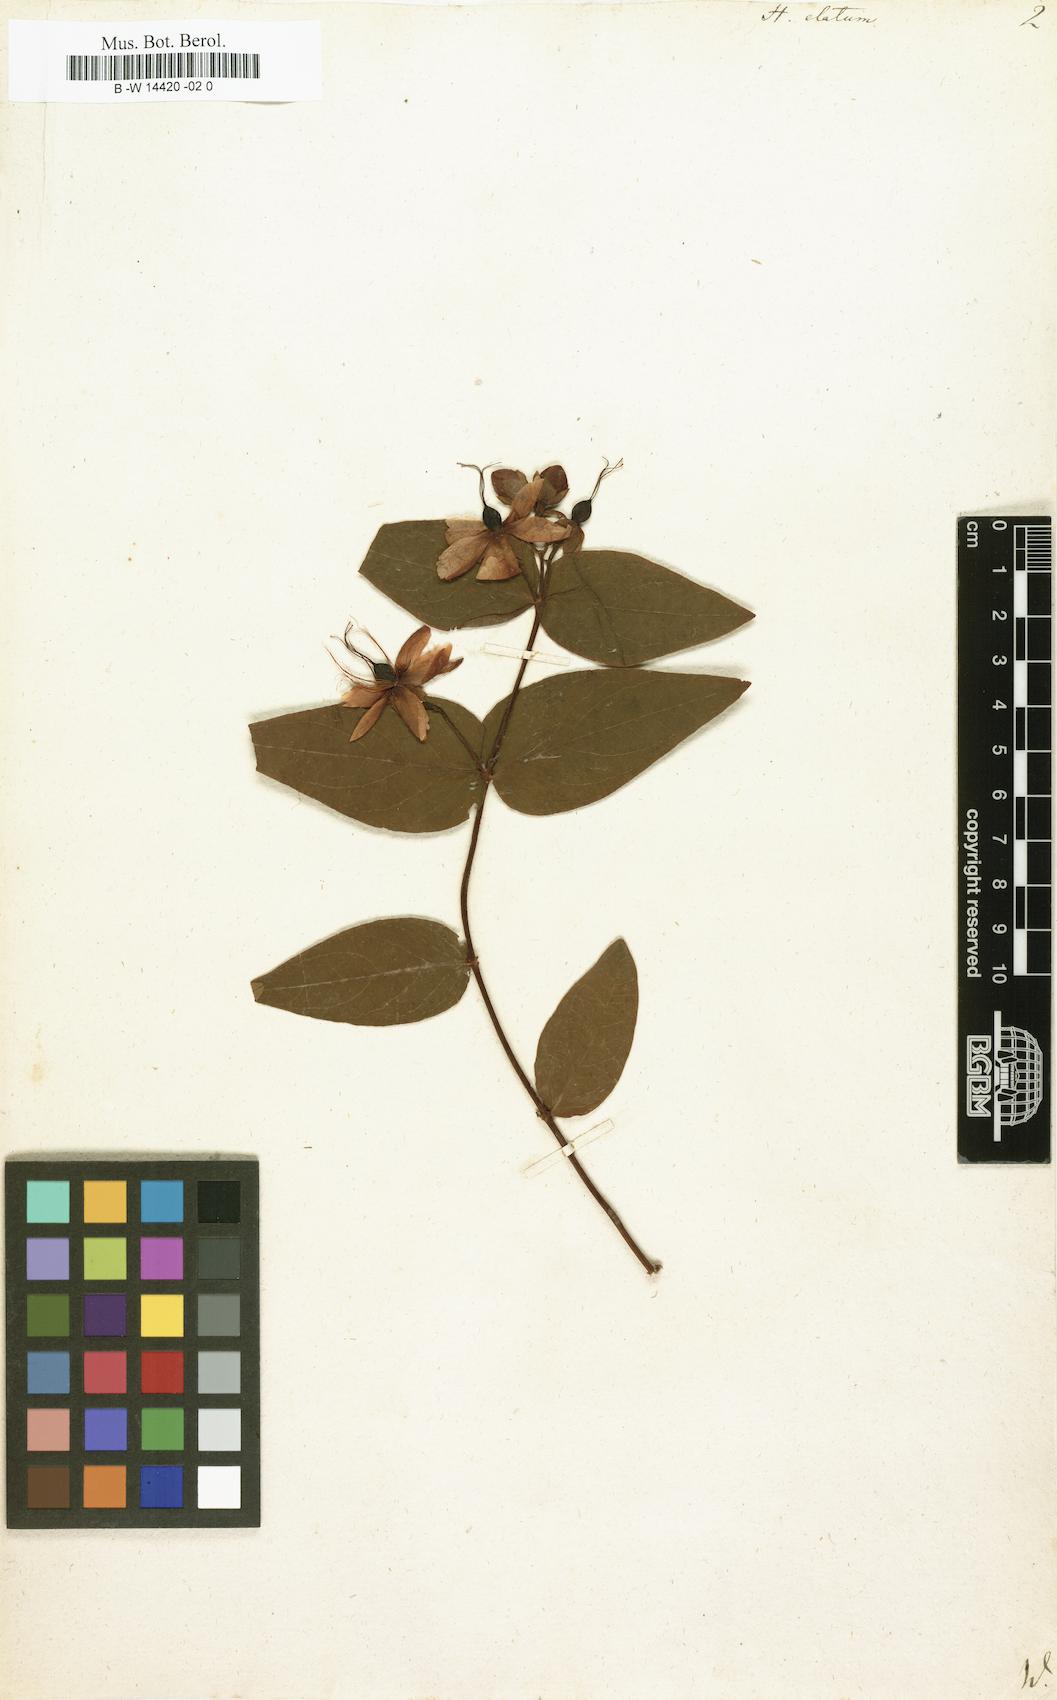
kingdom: Plantae
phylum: Tracheophyta
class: Magnoliopsida
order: Malpighiales
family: Hypericaceae
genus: Hypericum
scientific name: Hypericum inodorum
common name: Tall tutsan
